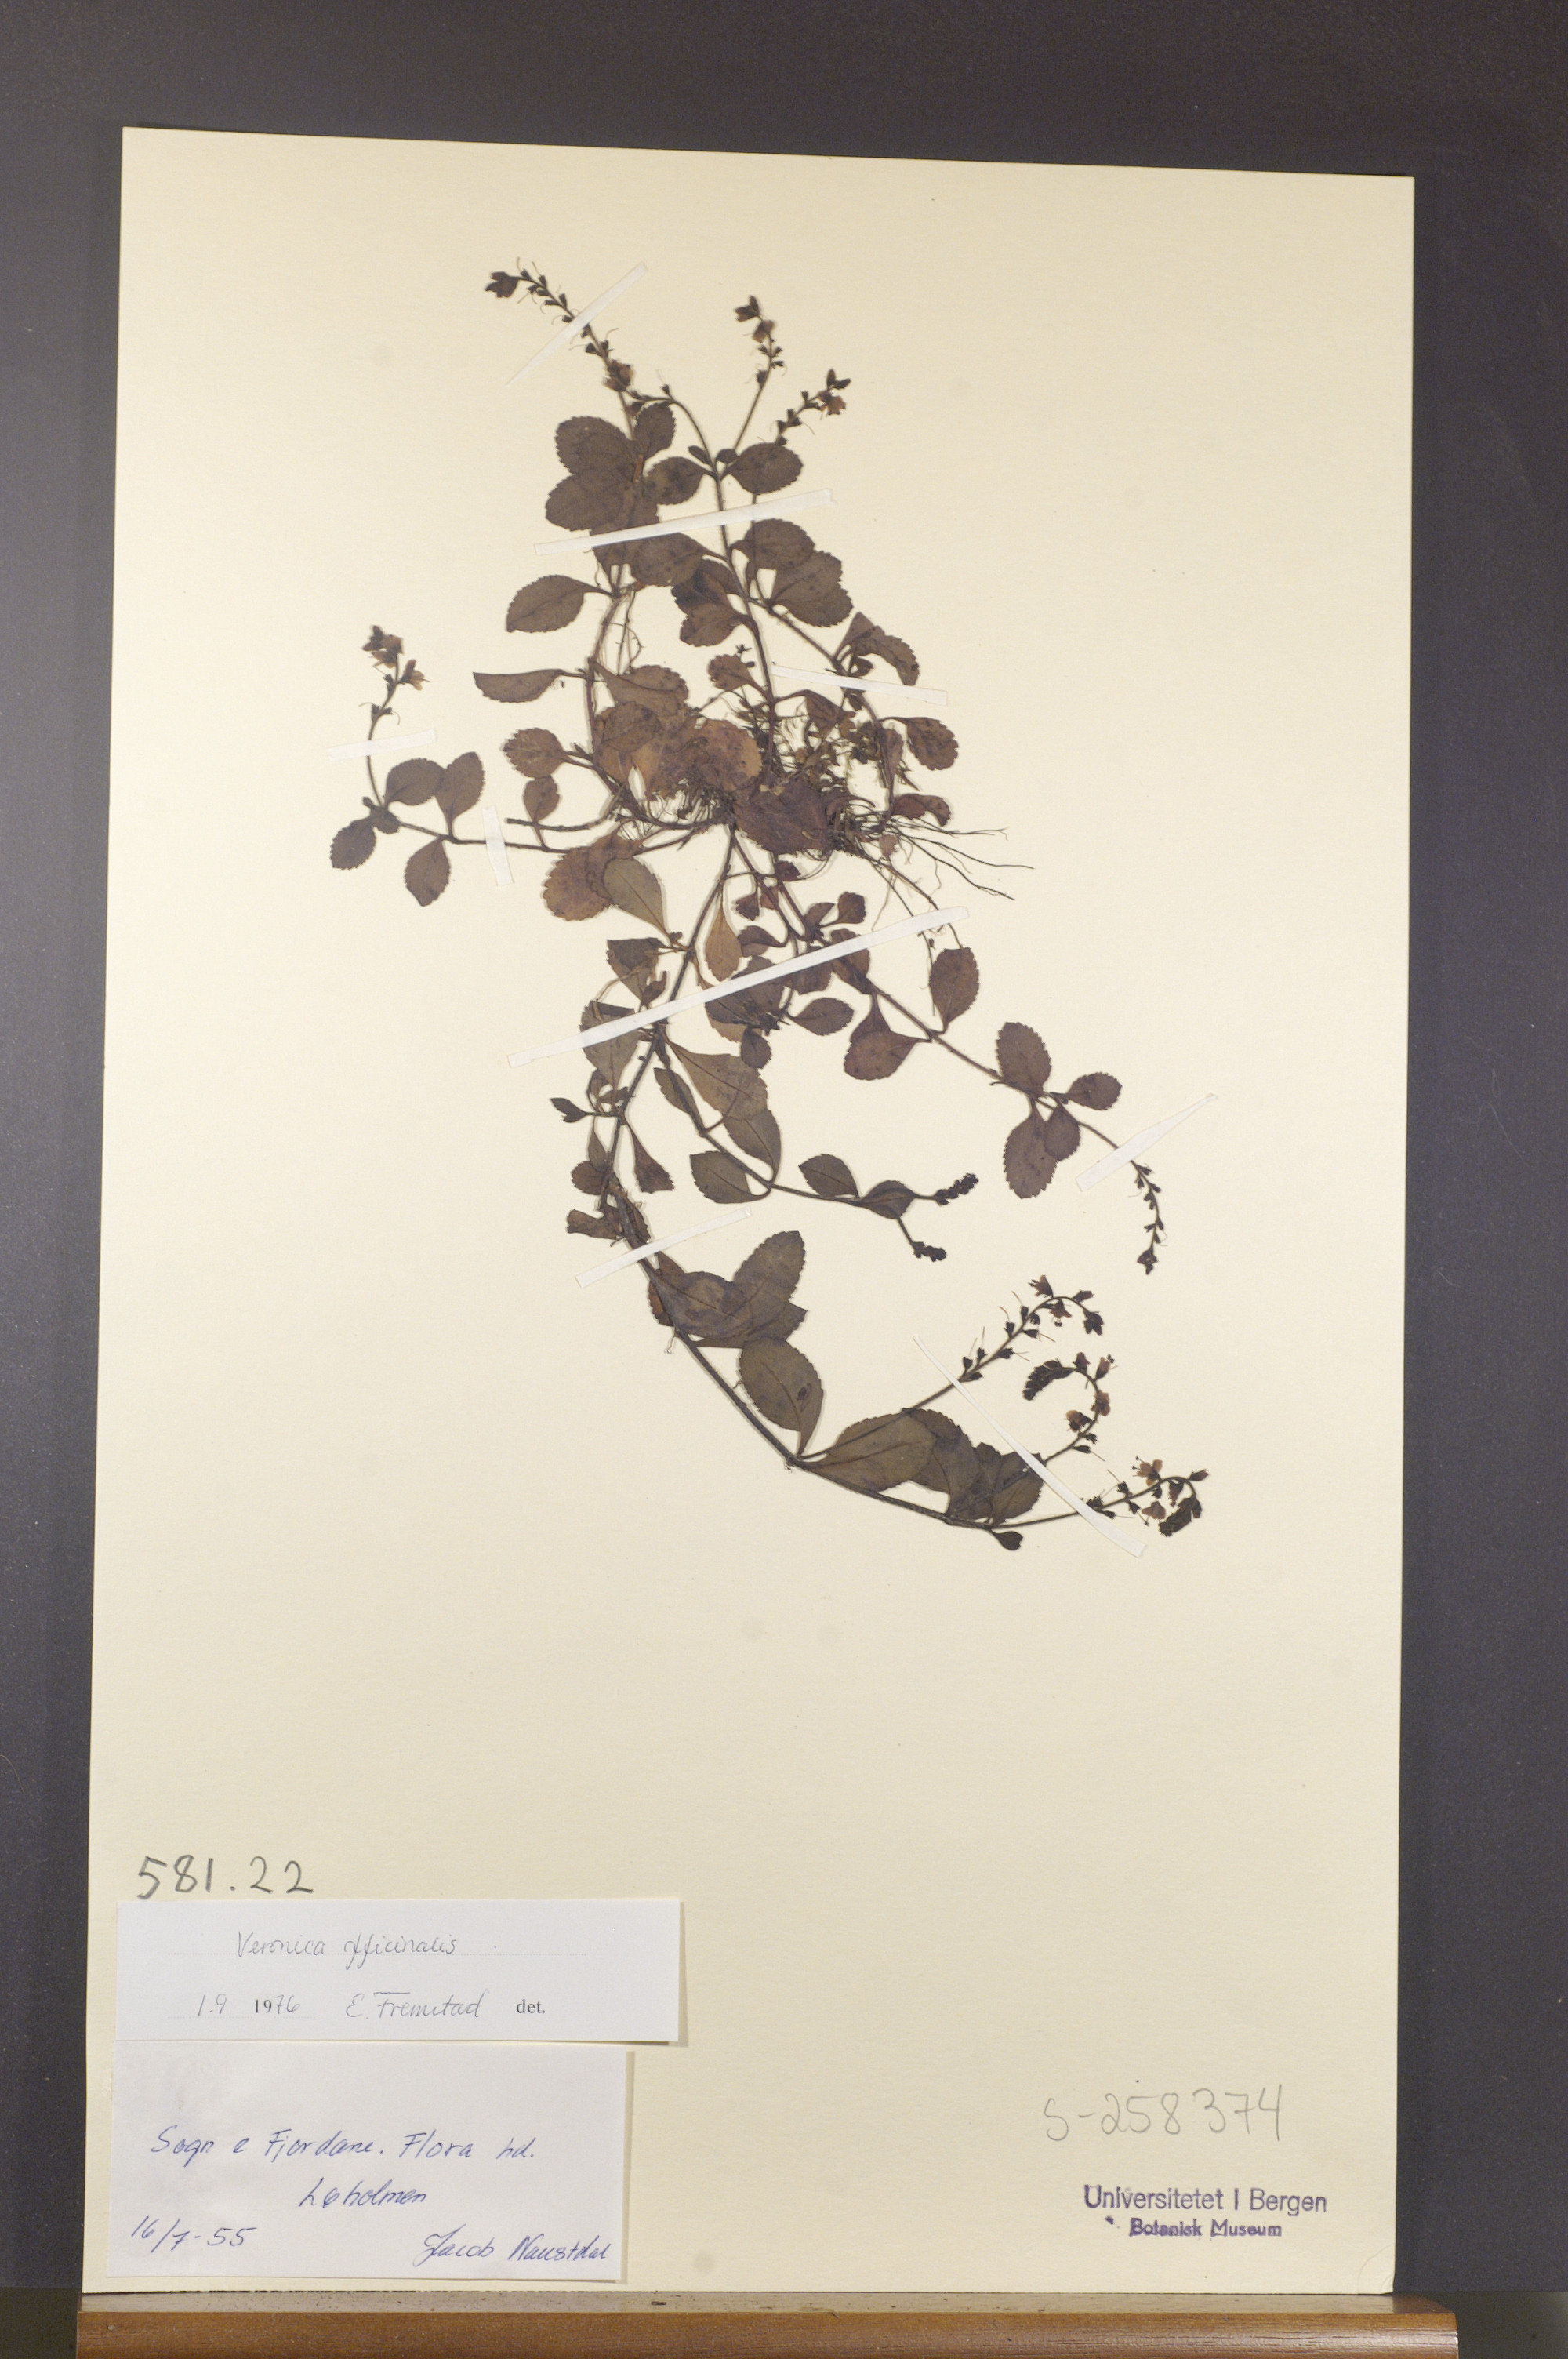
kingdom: Plantae
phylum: Tracheophyta
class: Magnoliopsida
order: Lamiales
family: Plantaginaceae
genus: Veronica
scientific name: Veronica officinalis
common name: Common speedwell
